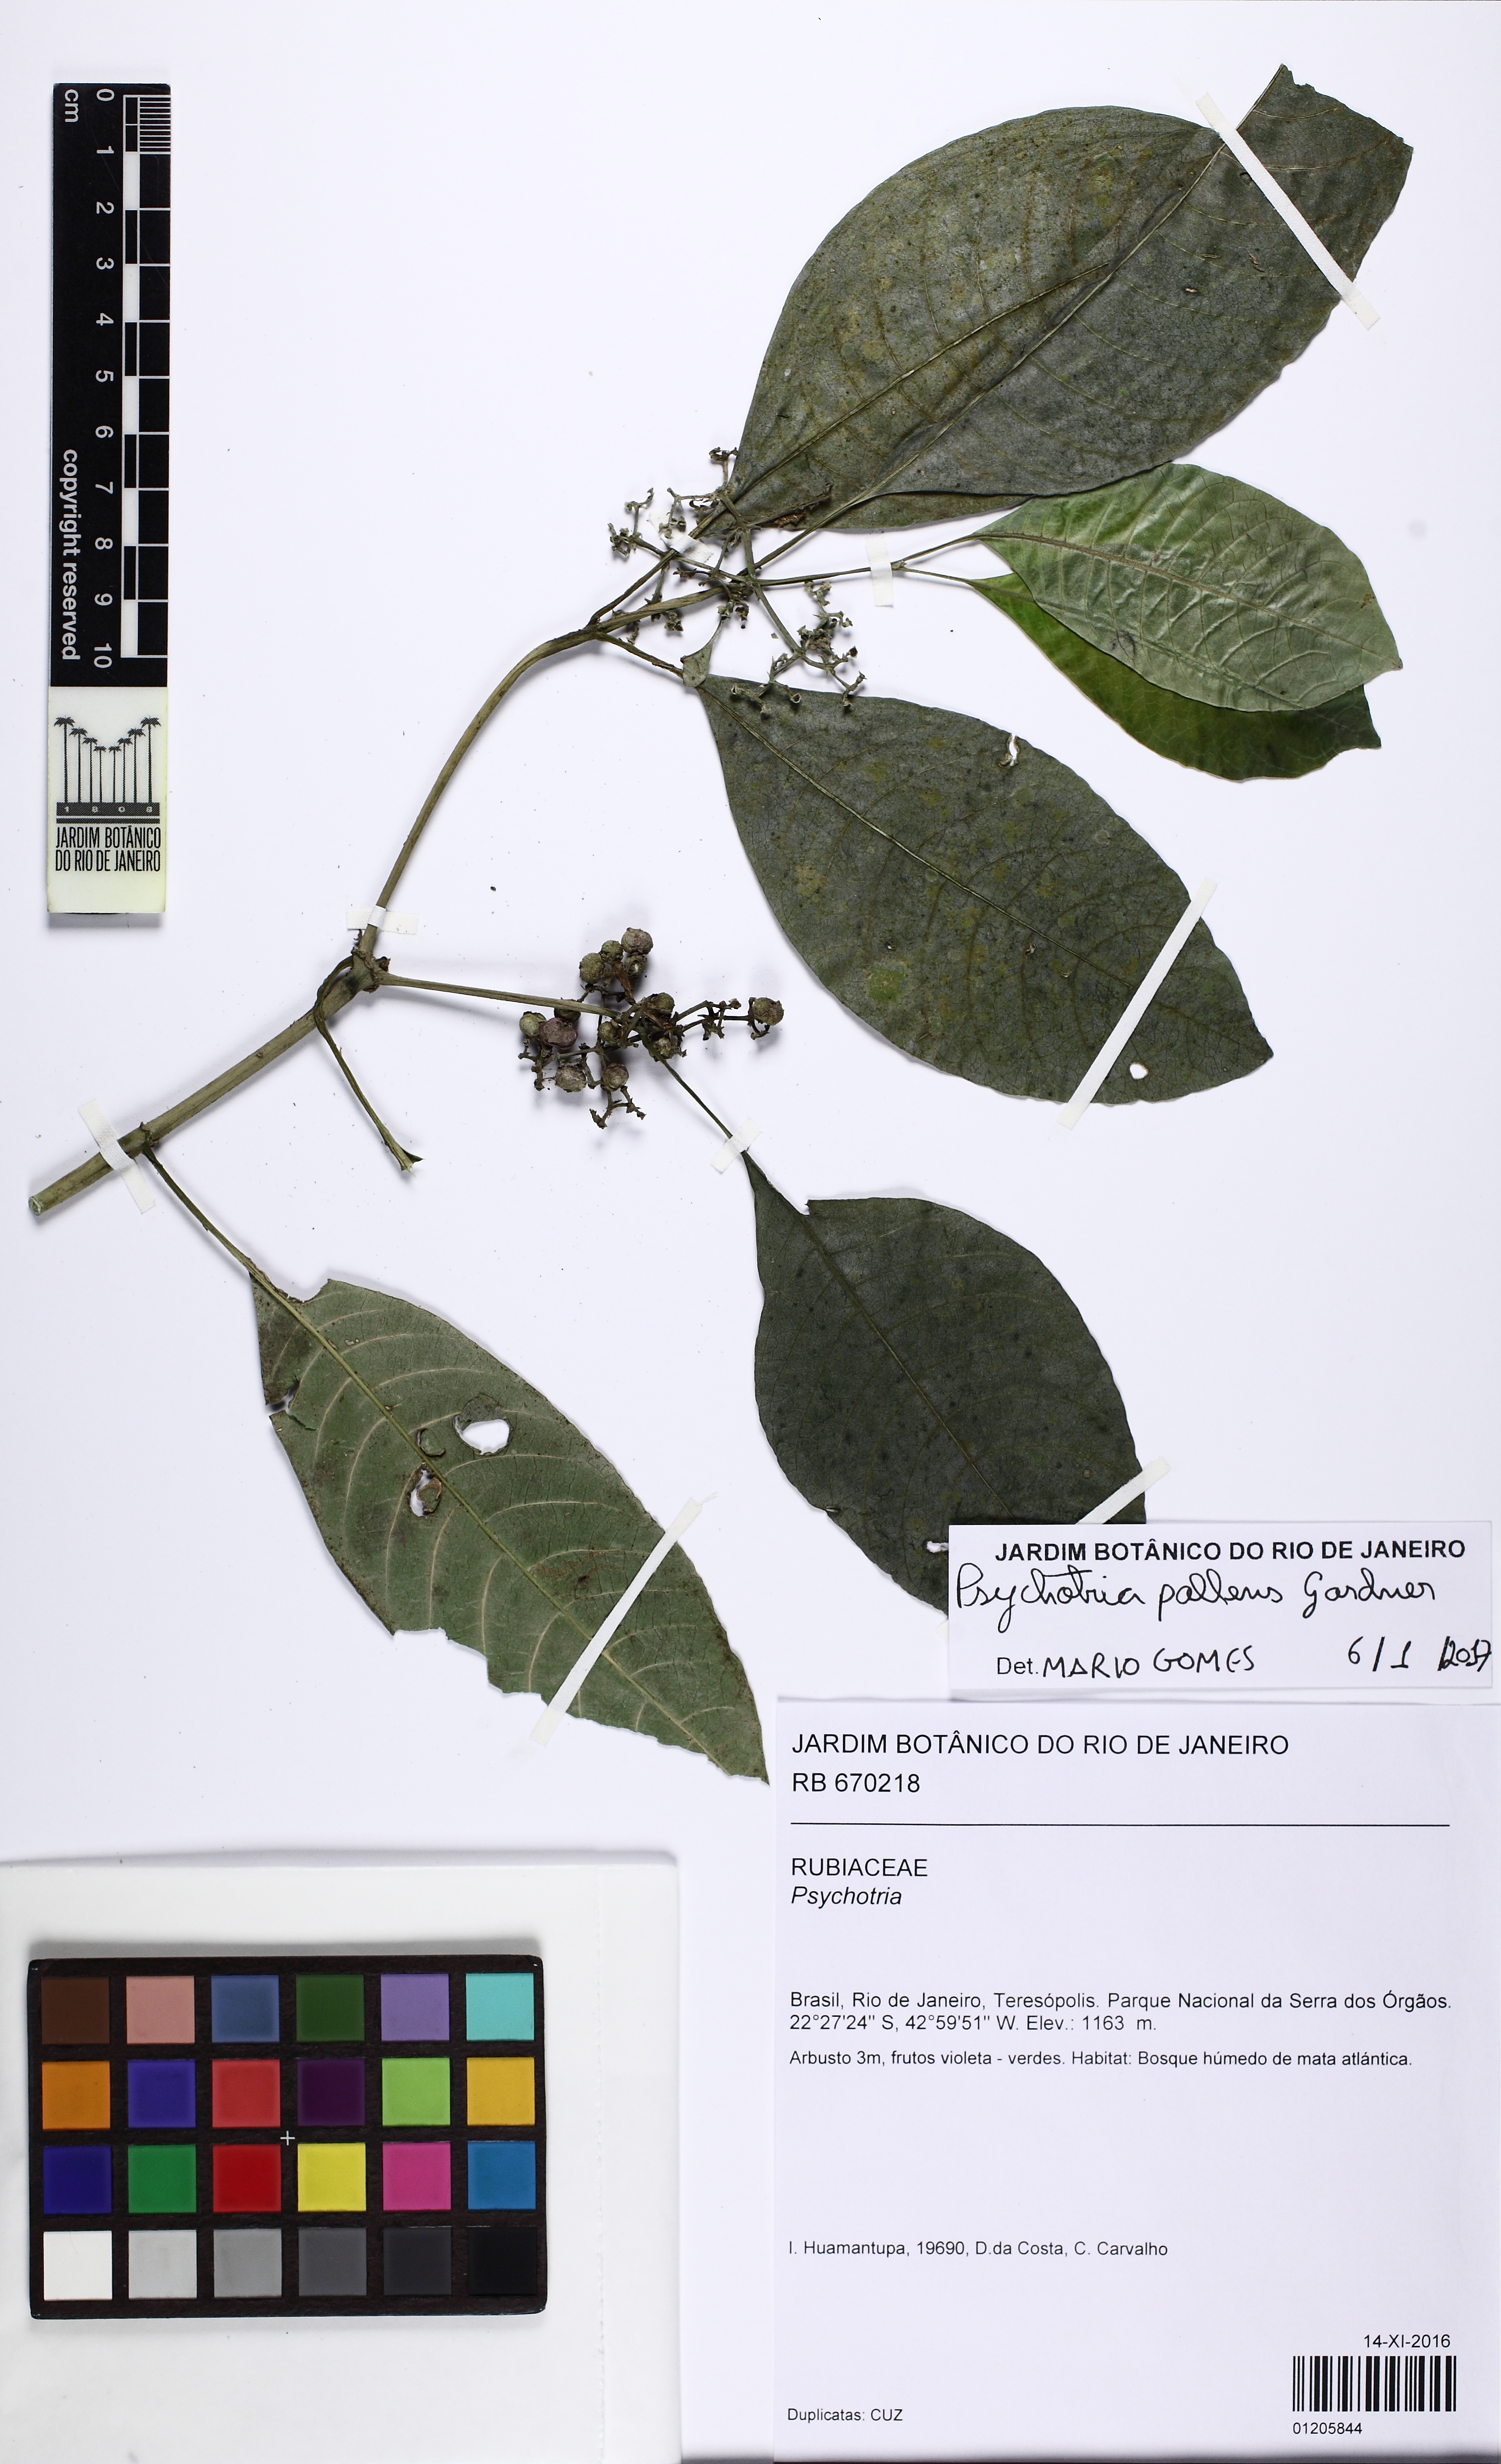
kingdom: Plantae
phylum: Tracheophyta
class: Magnoliopsida
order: Gentianales
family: Rubiaceae
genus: Psychotria
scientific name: Psychotria pallens
